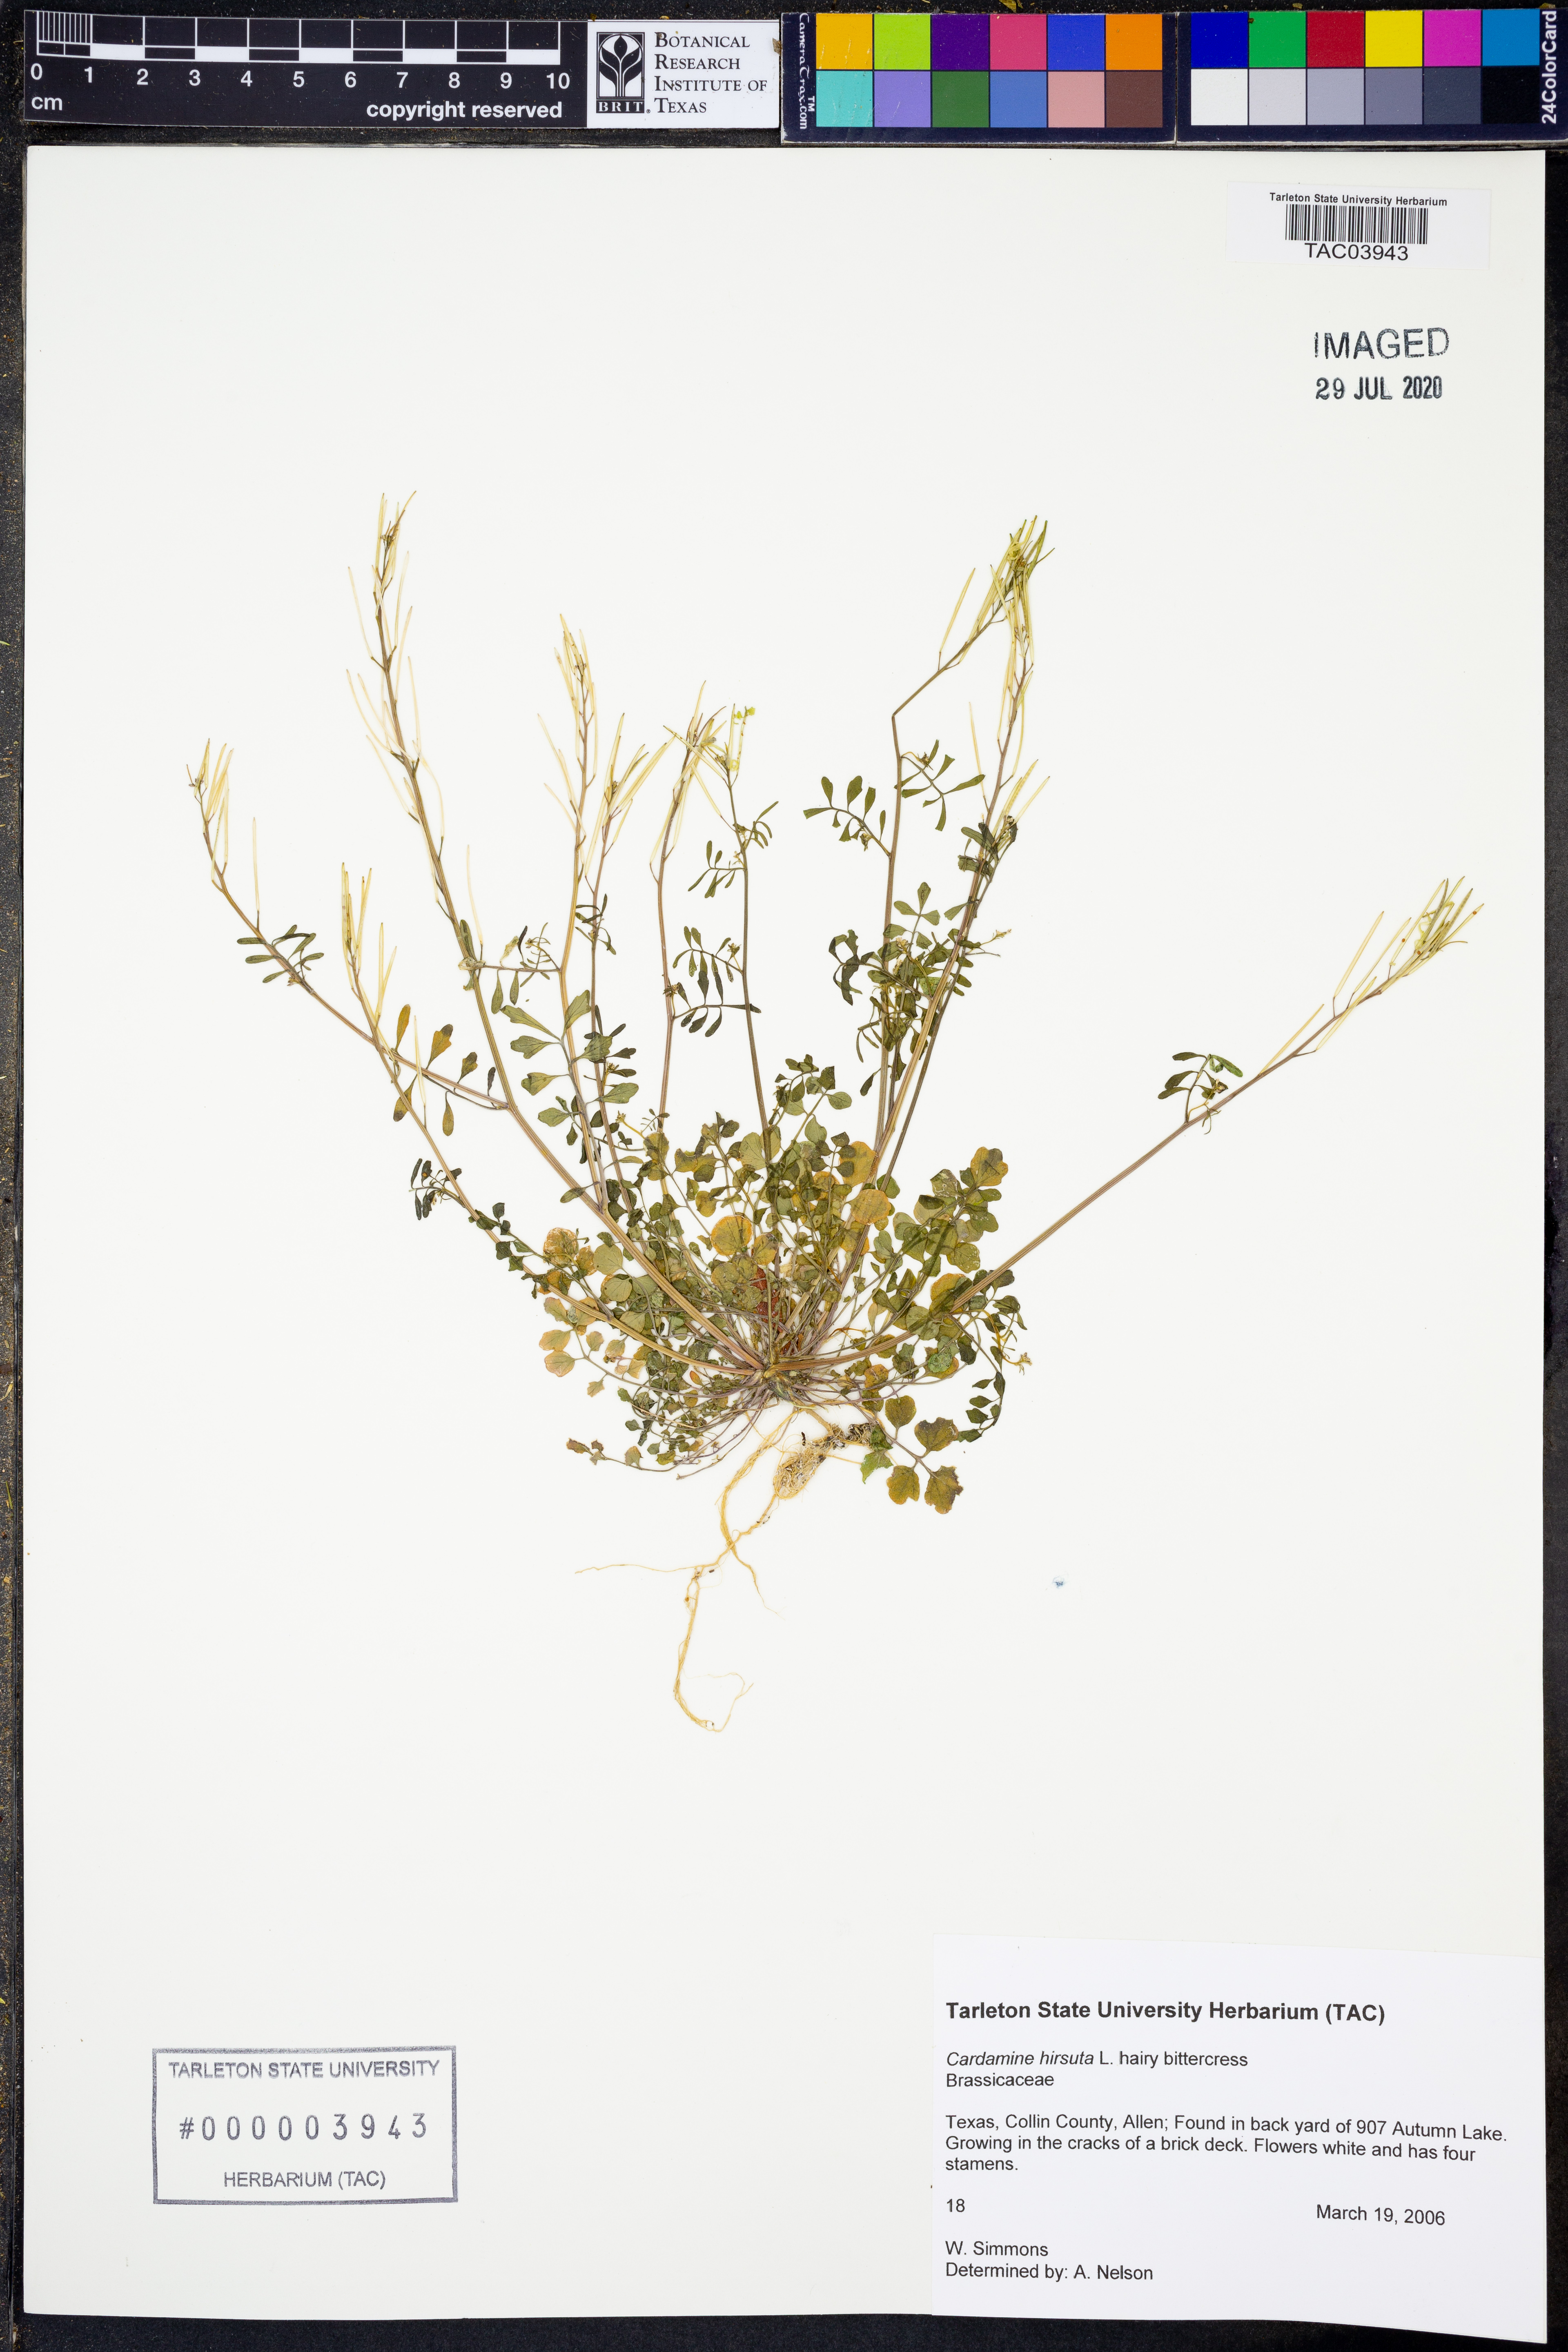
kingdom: Plantae
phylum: Tracheophyta
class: Magnoliopsida
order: Brassicales
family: Brassicaceae
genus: Cardamine
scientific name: Cardamine hirsuta
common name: Hairy bittercress
